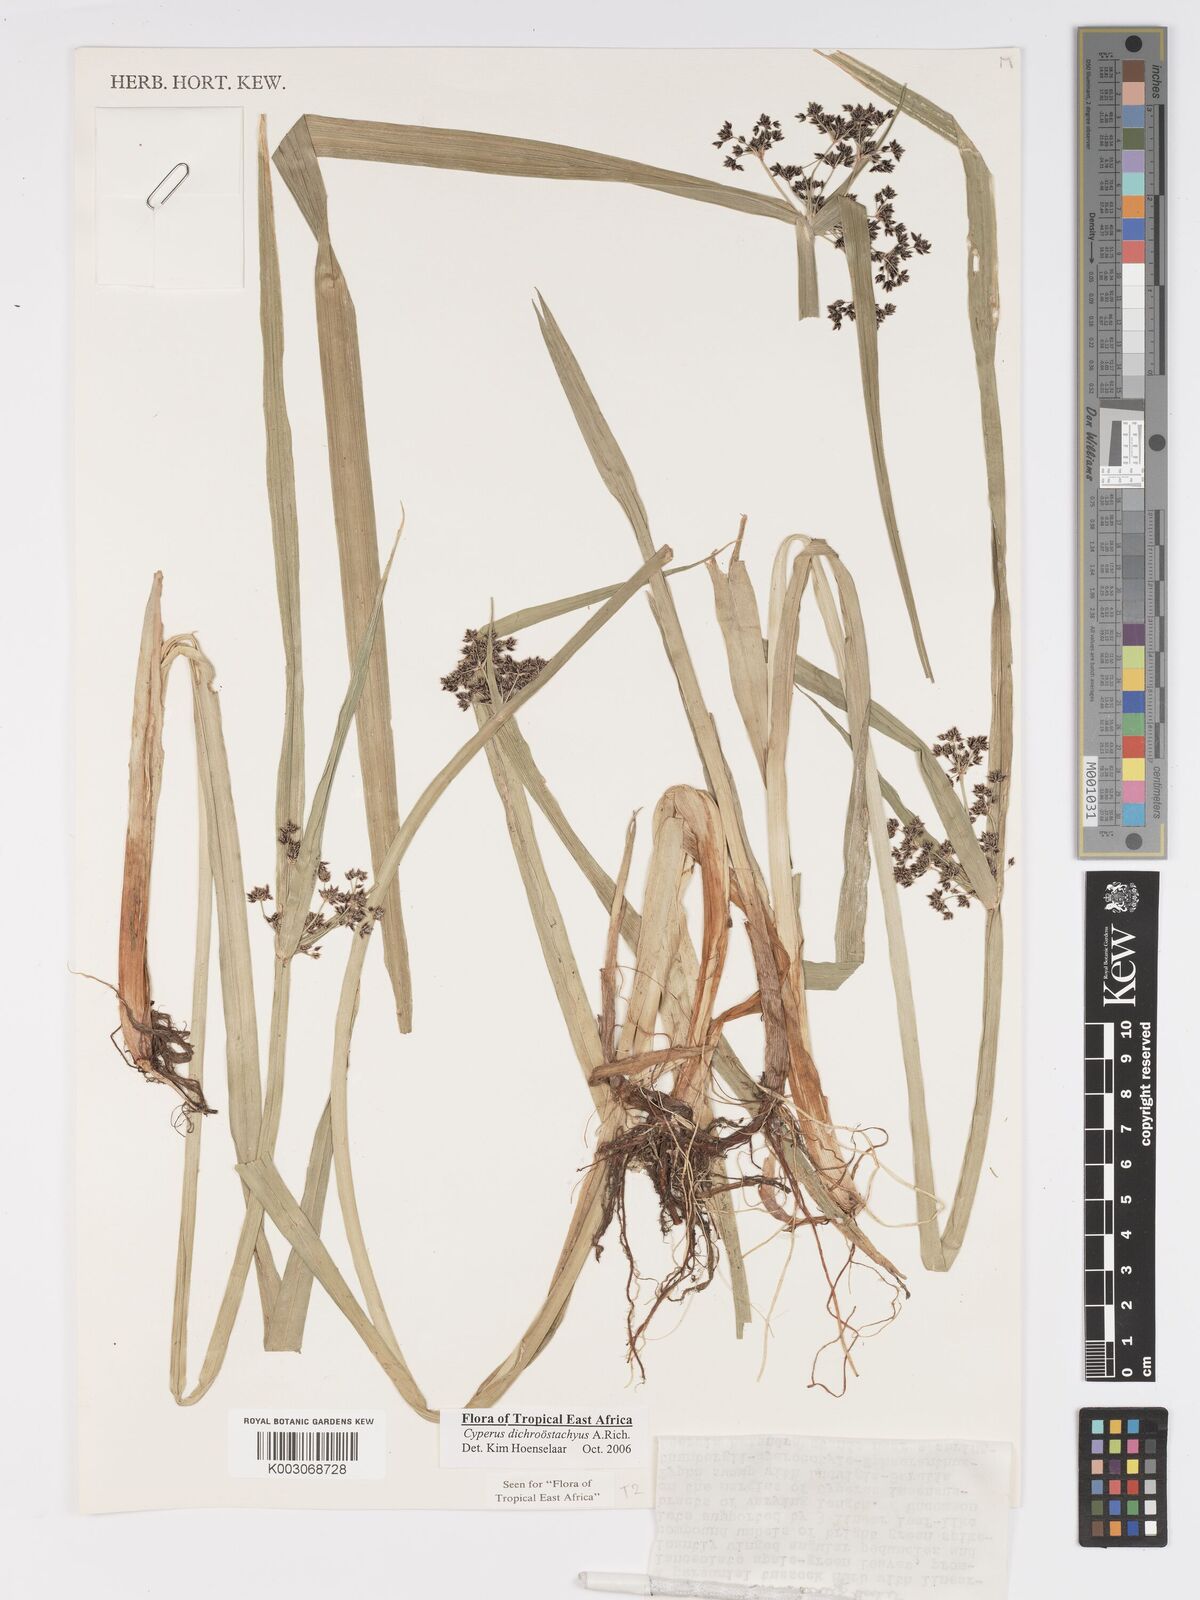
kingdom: Plantae
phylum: Tracheophyta
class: Liliopsida
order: Poales
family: Cyperaceae
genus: Cyperus
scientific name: Cyperus dichrostachyus
